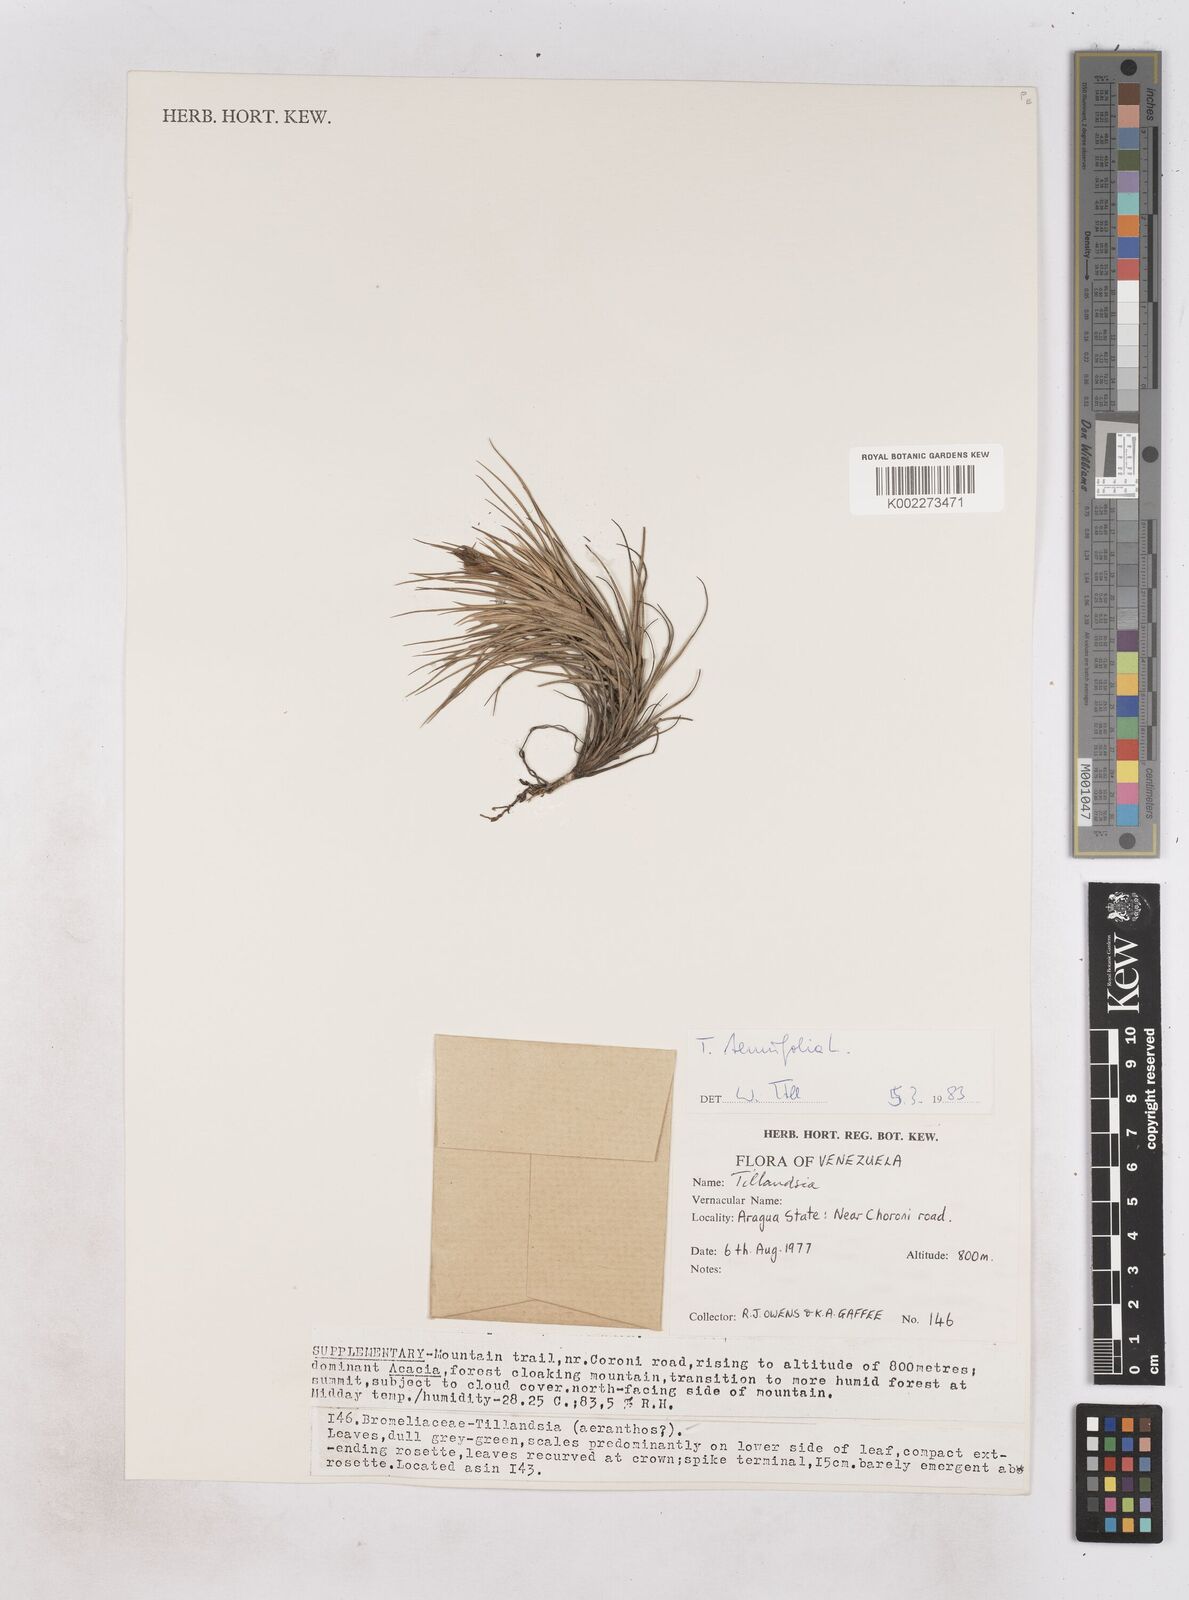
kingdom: Plantae
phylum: Tracheophyta
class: Liliopsida
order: Poales
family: Bromeliaceae
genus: Tillandsia
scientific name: Tillandsia tenuifolia
